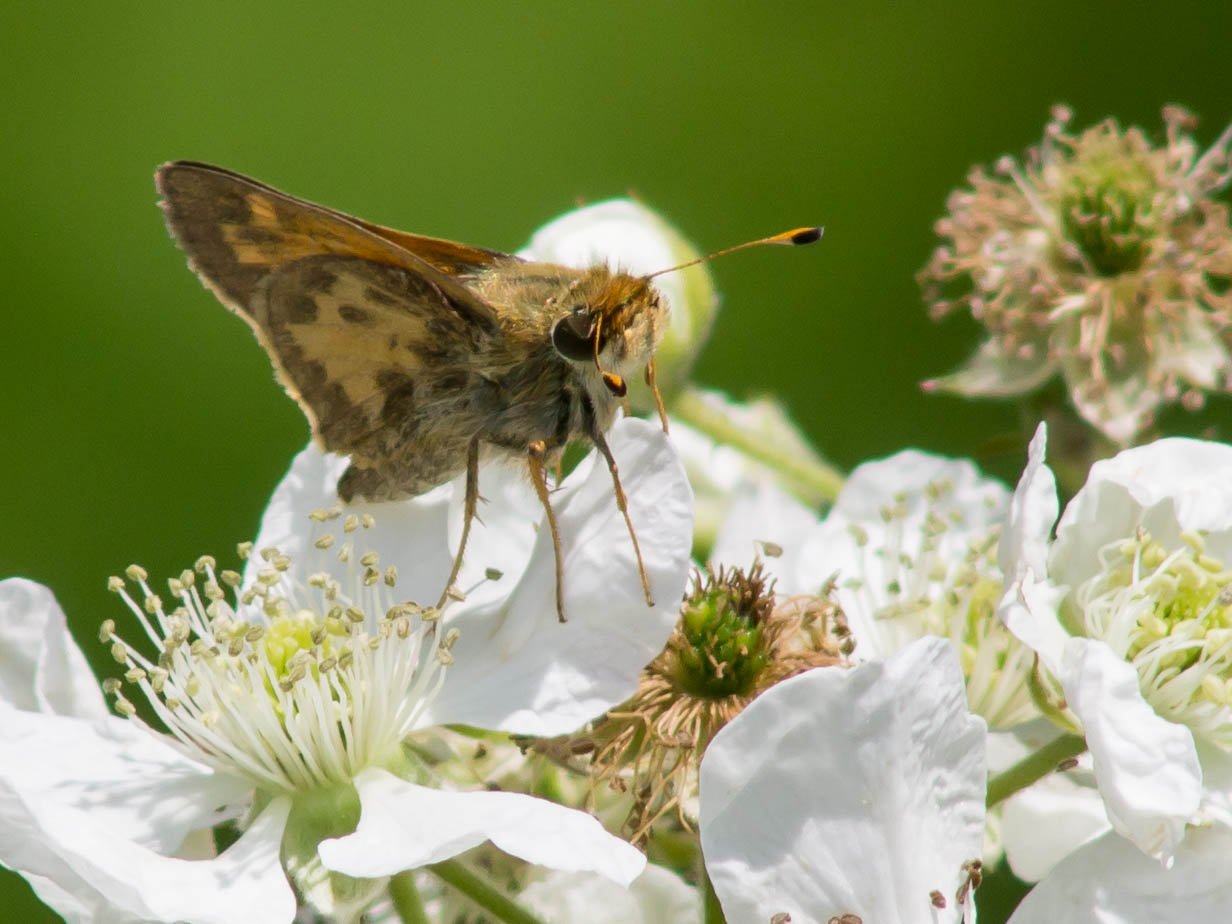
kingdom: Animalia
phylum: Arthropoda
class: Insecta
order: Lepidoptera
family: Hesperiidae
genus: Atalopedes
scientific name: Atalopedes campestris
